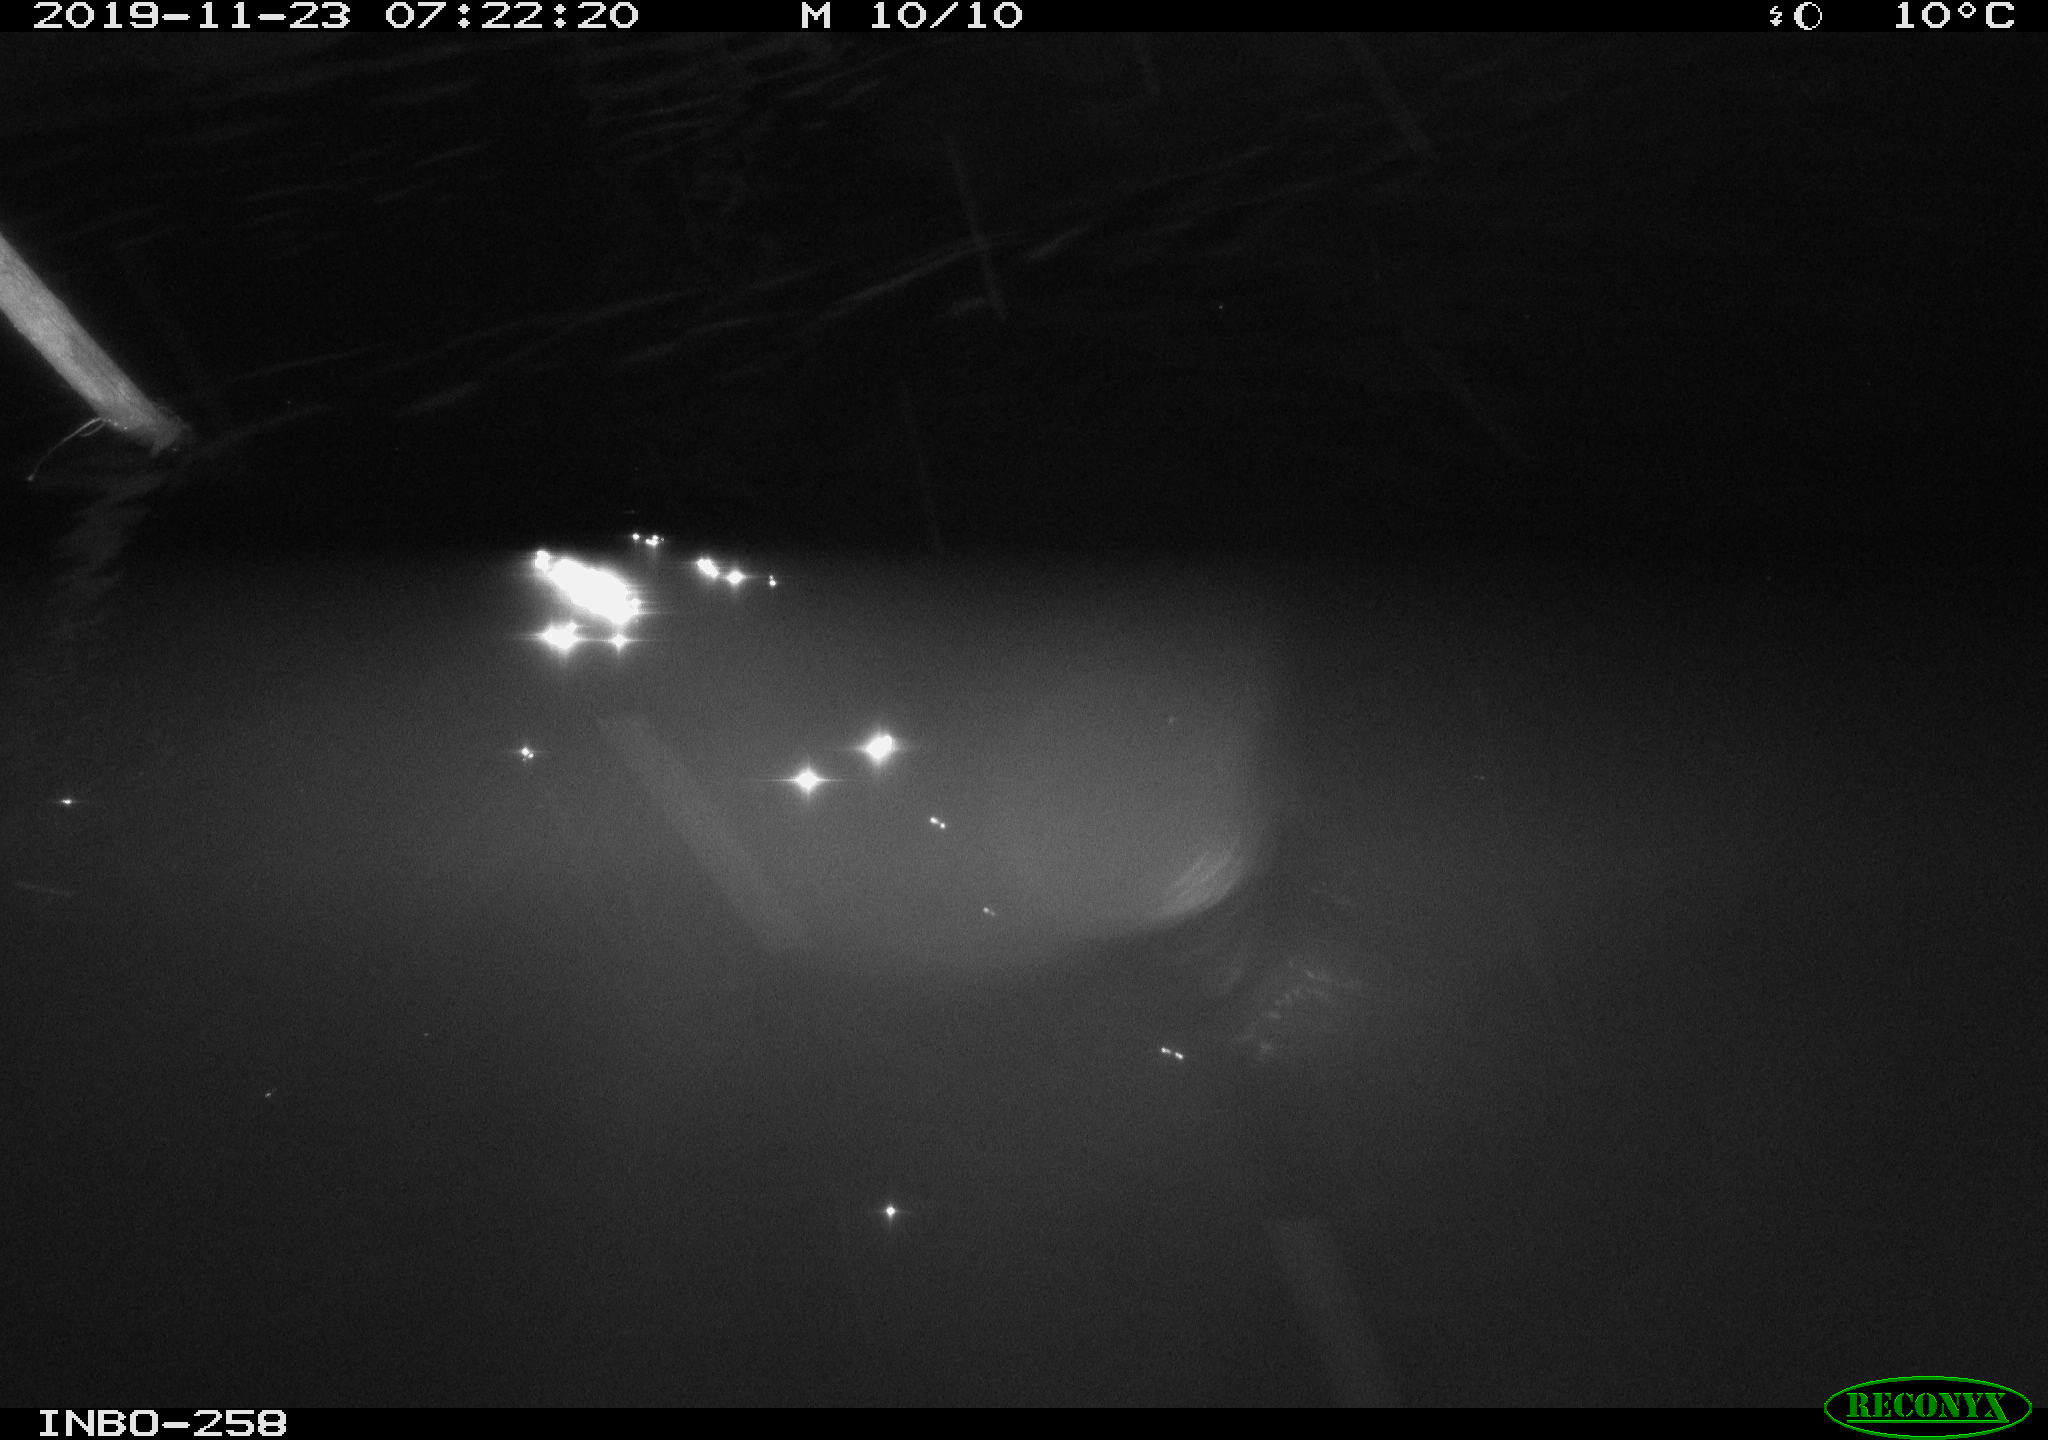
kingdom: Animalia
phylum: Chordata
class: Aves
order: Gruiformes
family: Rallidae
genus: Gallinula
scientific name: Gallinula chloropus
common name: Common moorhen
